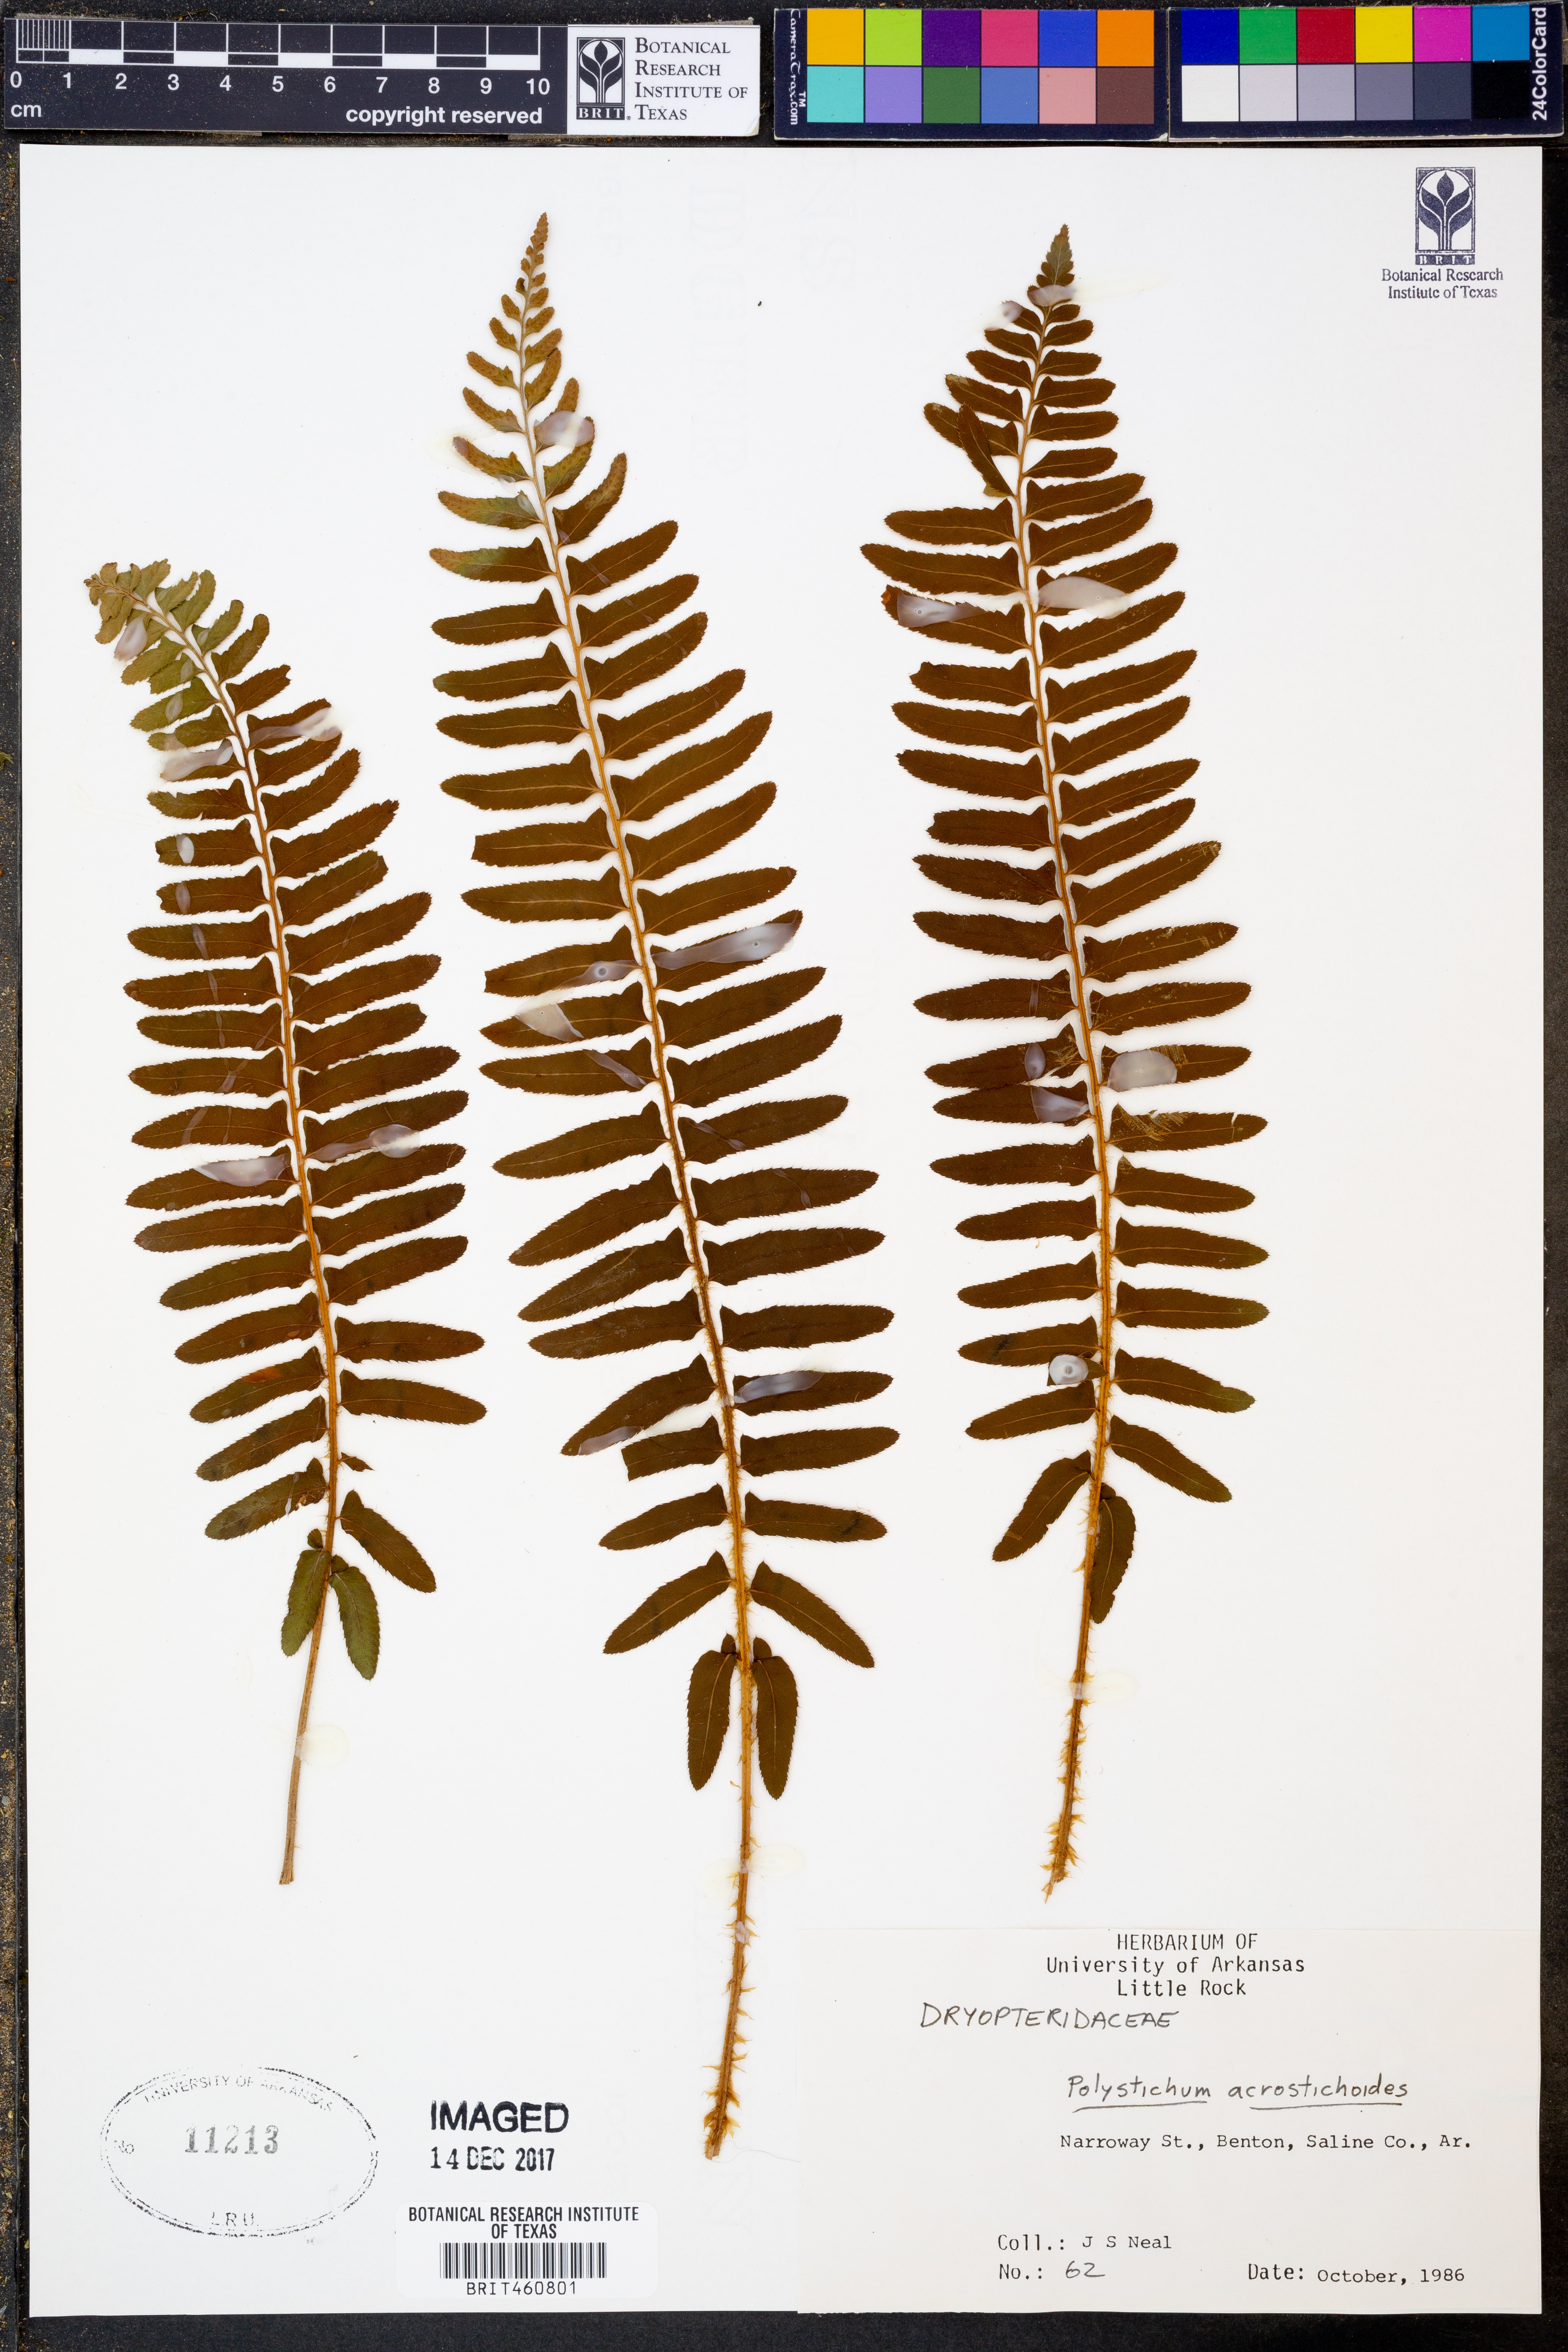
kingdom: Plantae
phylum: Tracheophyta
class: Polypodiopsida
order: Polypodiales
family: Dryopteridaceae
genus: Polystichum
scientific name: Polystichum acrostichoides
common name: Christmas fern
